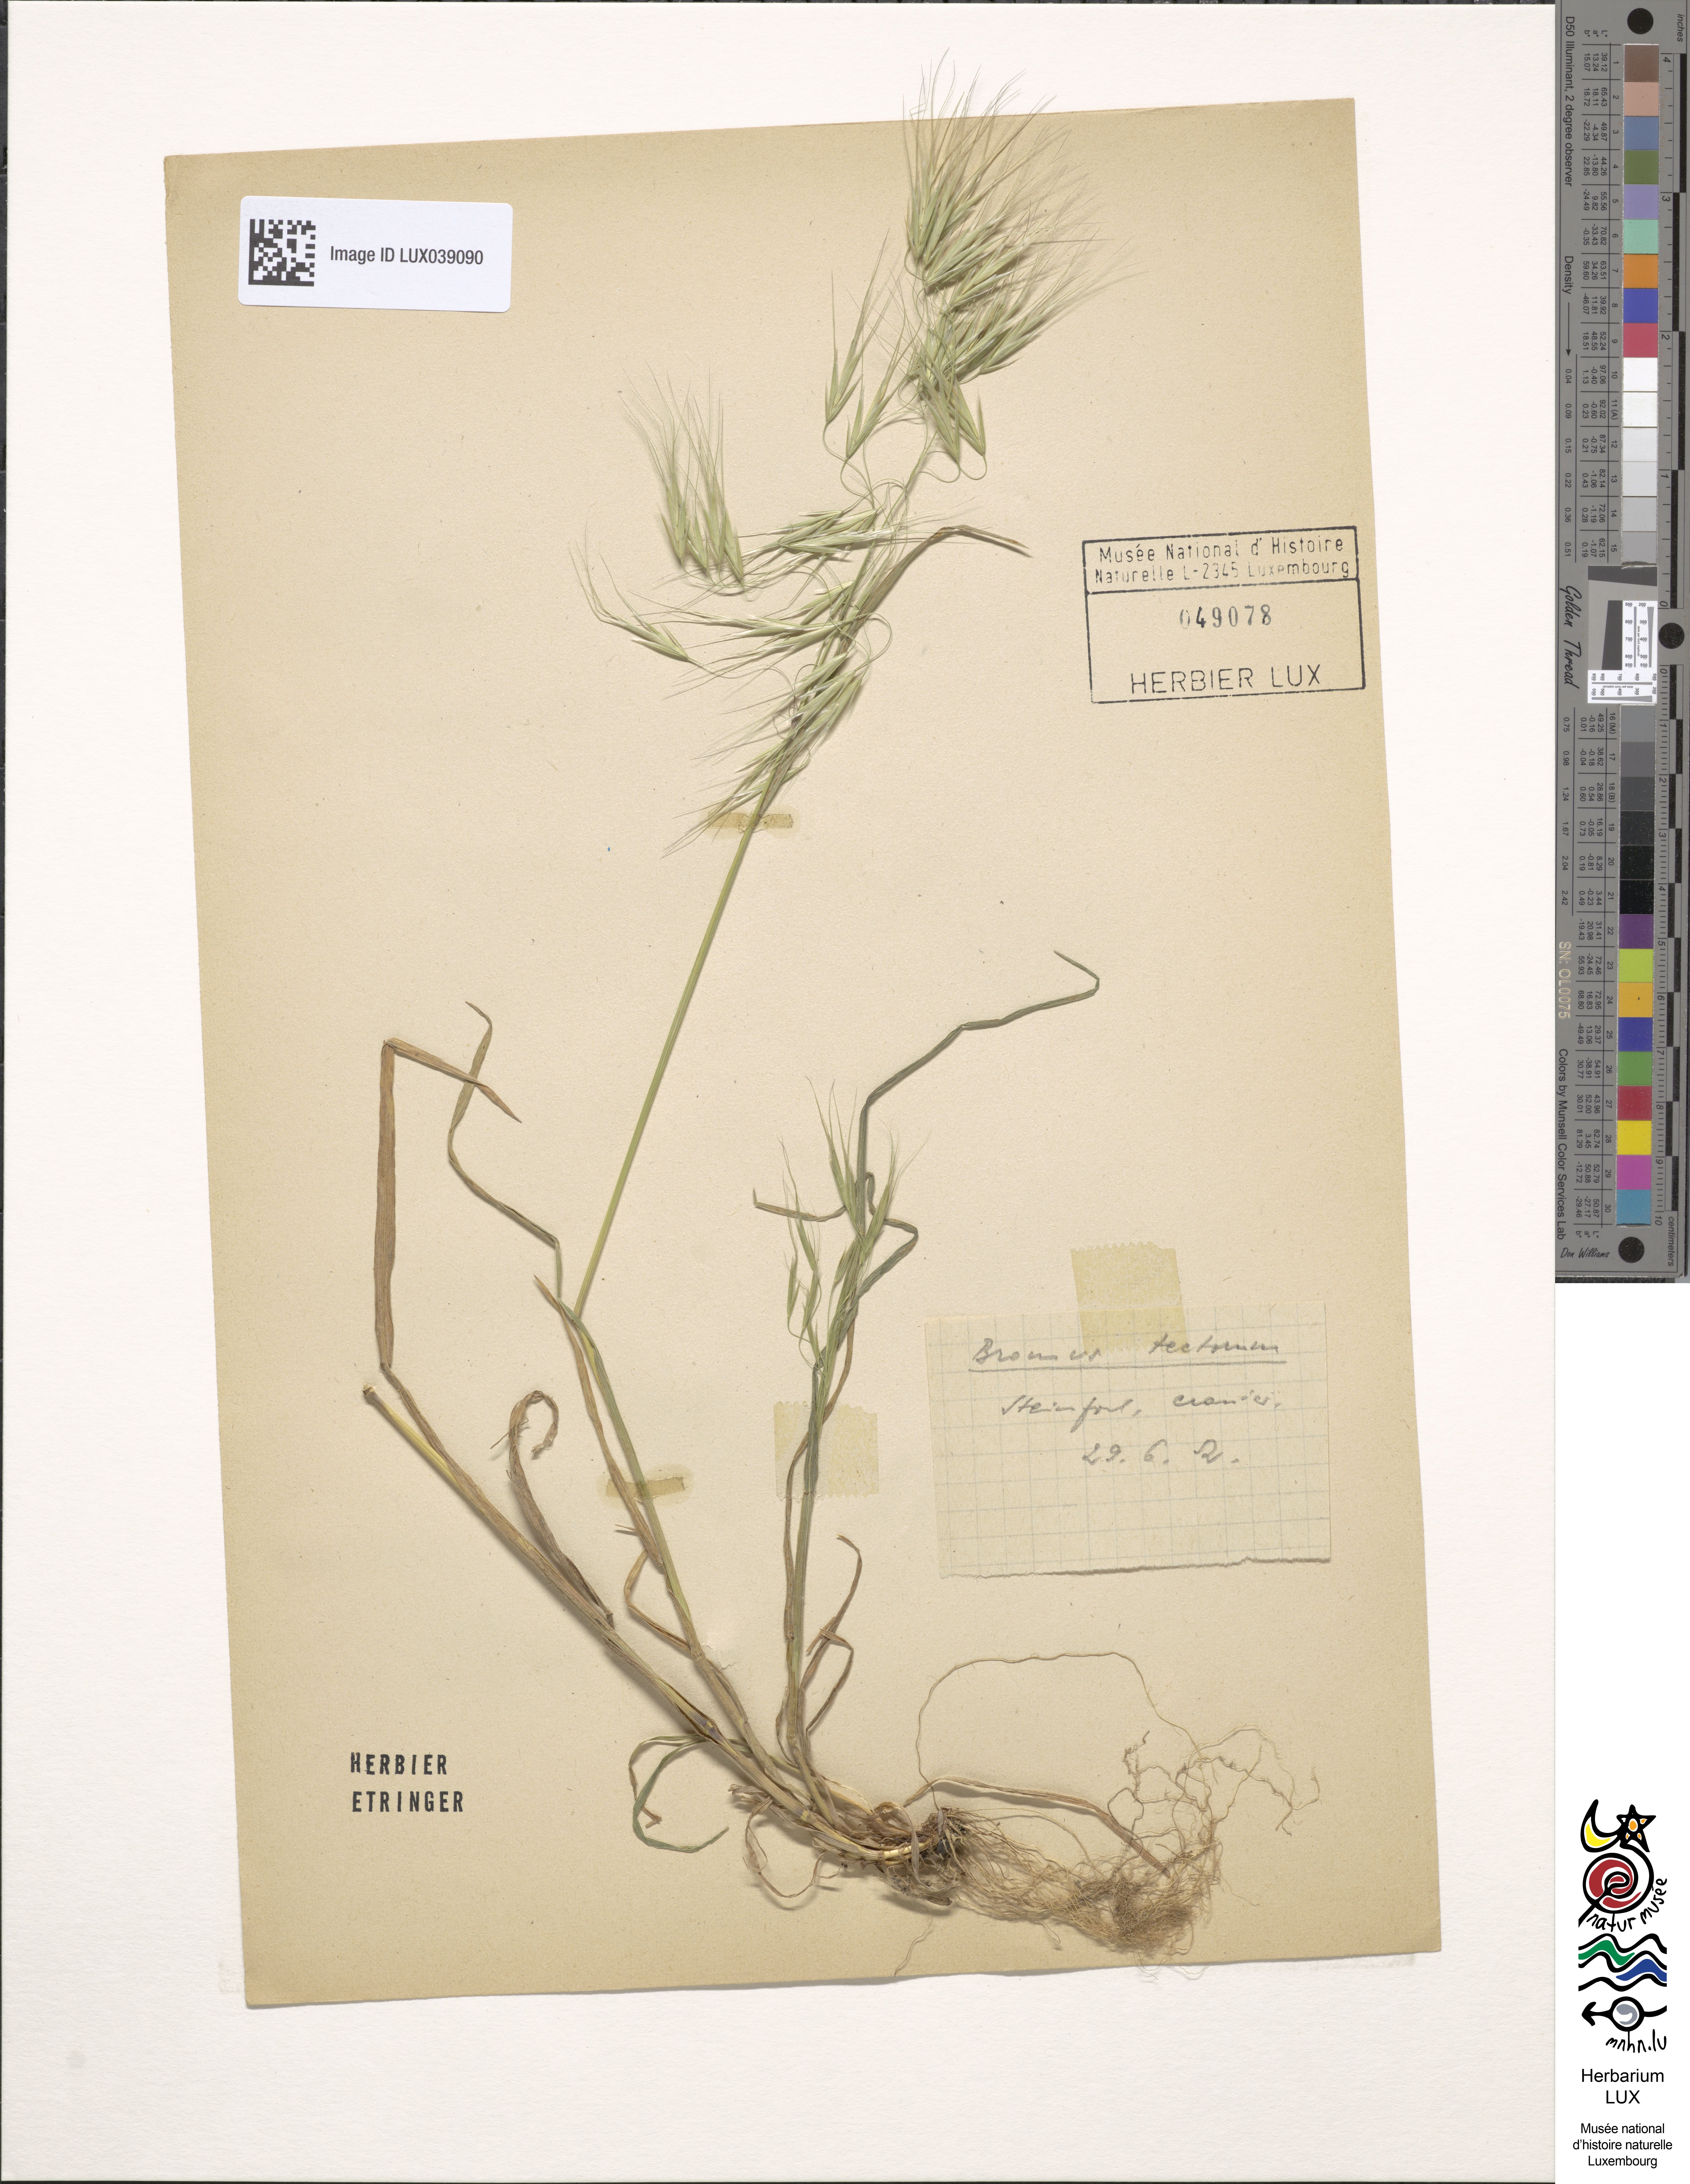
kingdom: Plantae
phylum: Tracheophyta
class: Liliopsida
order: Poales
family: Poaceae
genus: Bromus
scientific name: Bromus tectorum
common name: Cheatgrass
